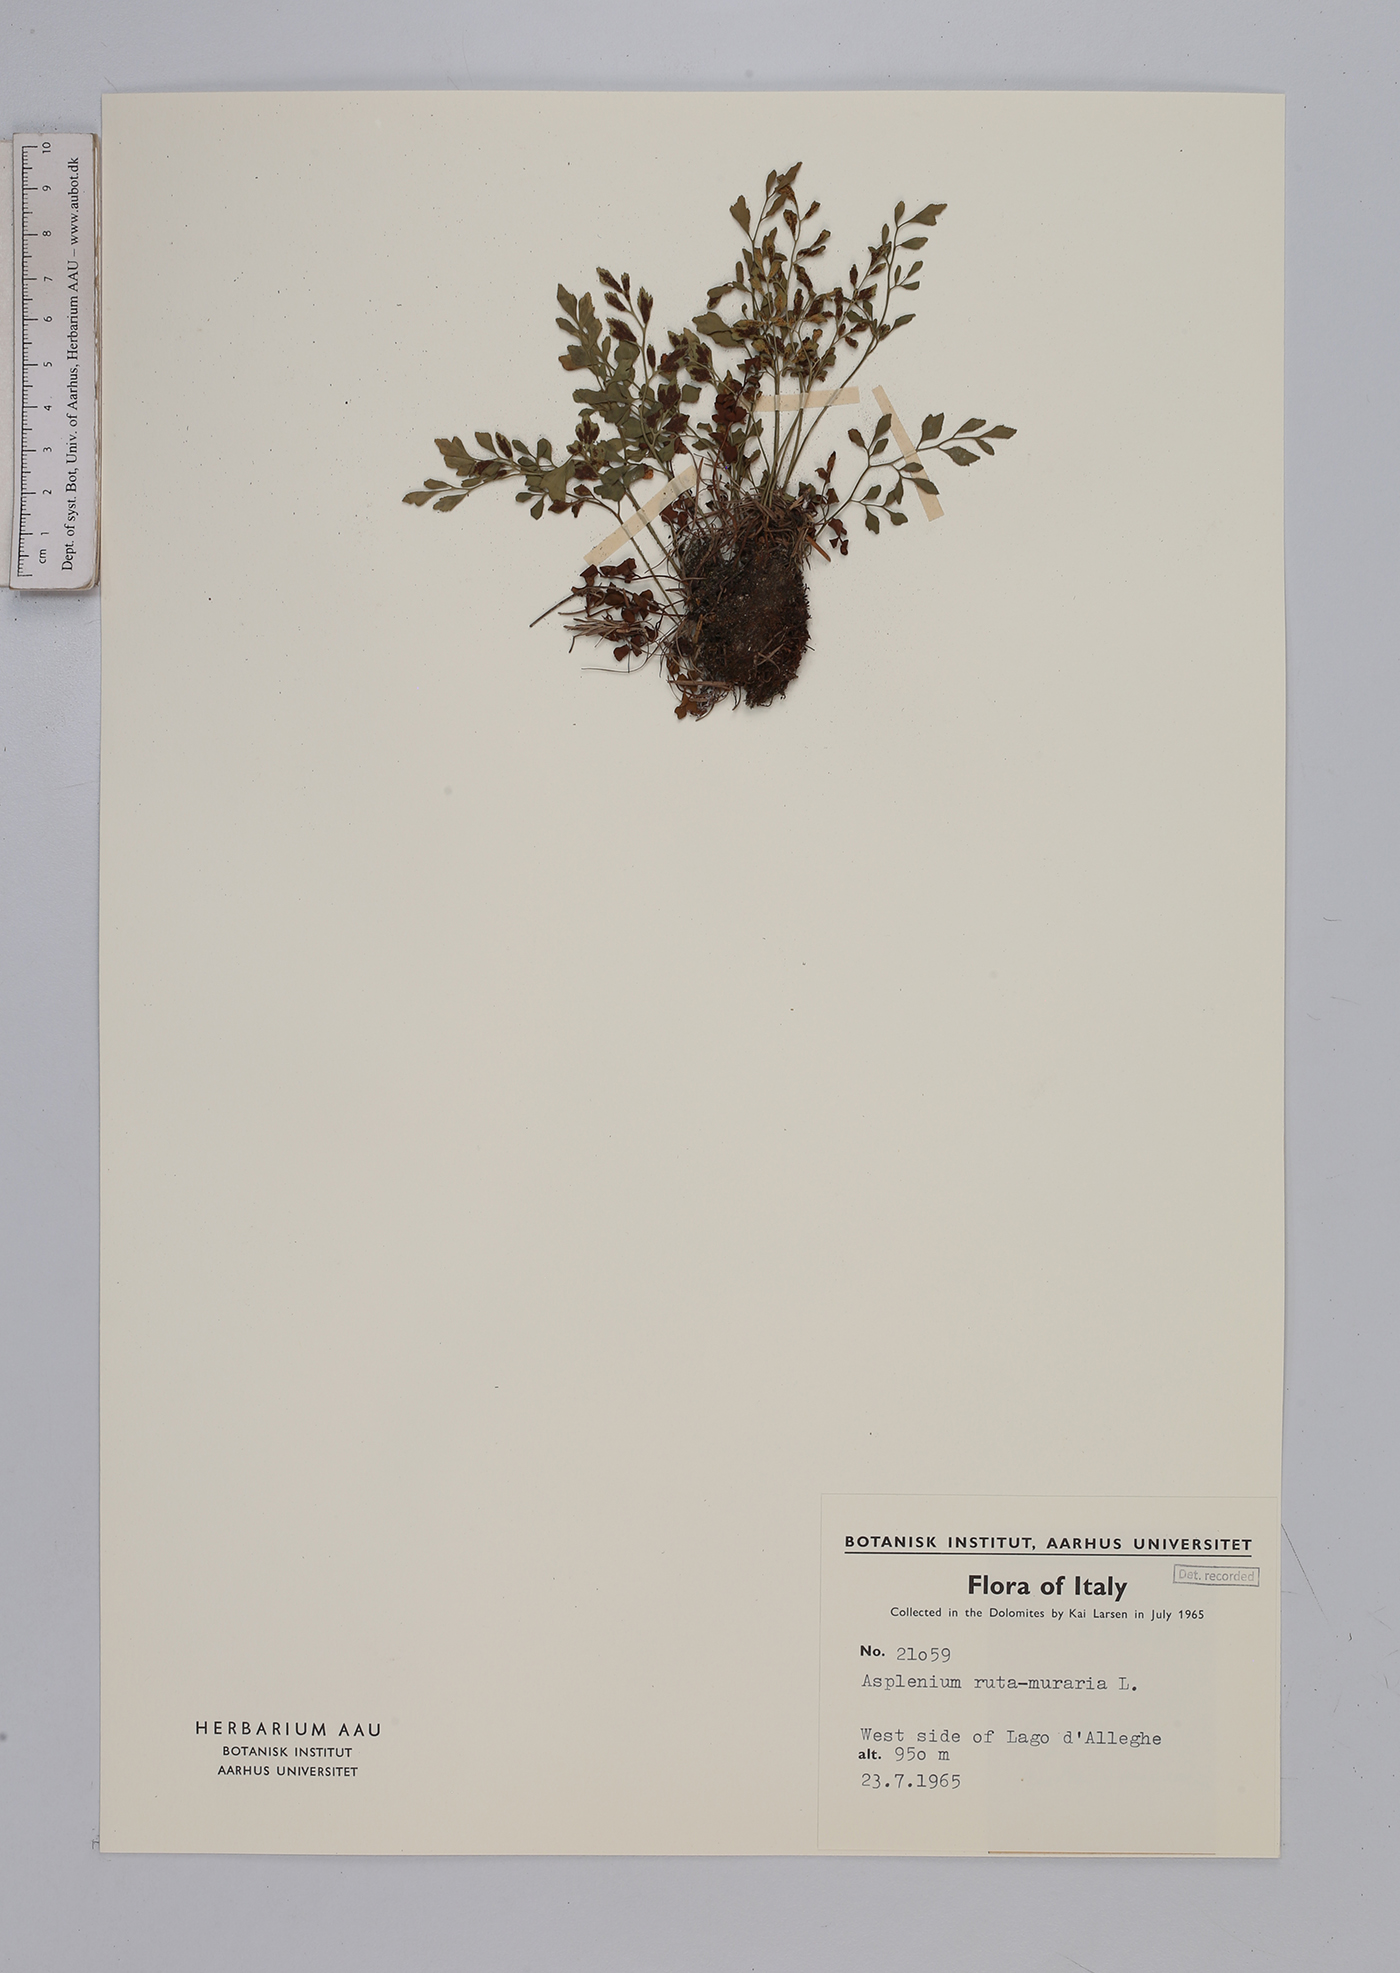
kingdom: Plantae
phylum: Tracheophyta
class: Polypodiopsida
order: Polypodiales
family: Aspleniaceae
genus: Asplenium
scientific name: Asplenium ruta-muraria
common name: Wall-rue
